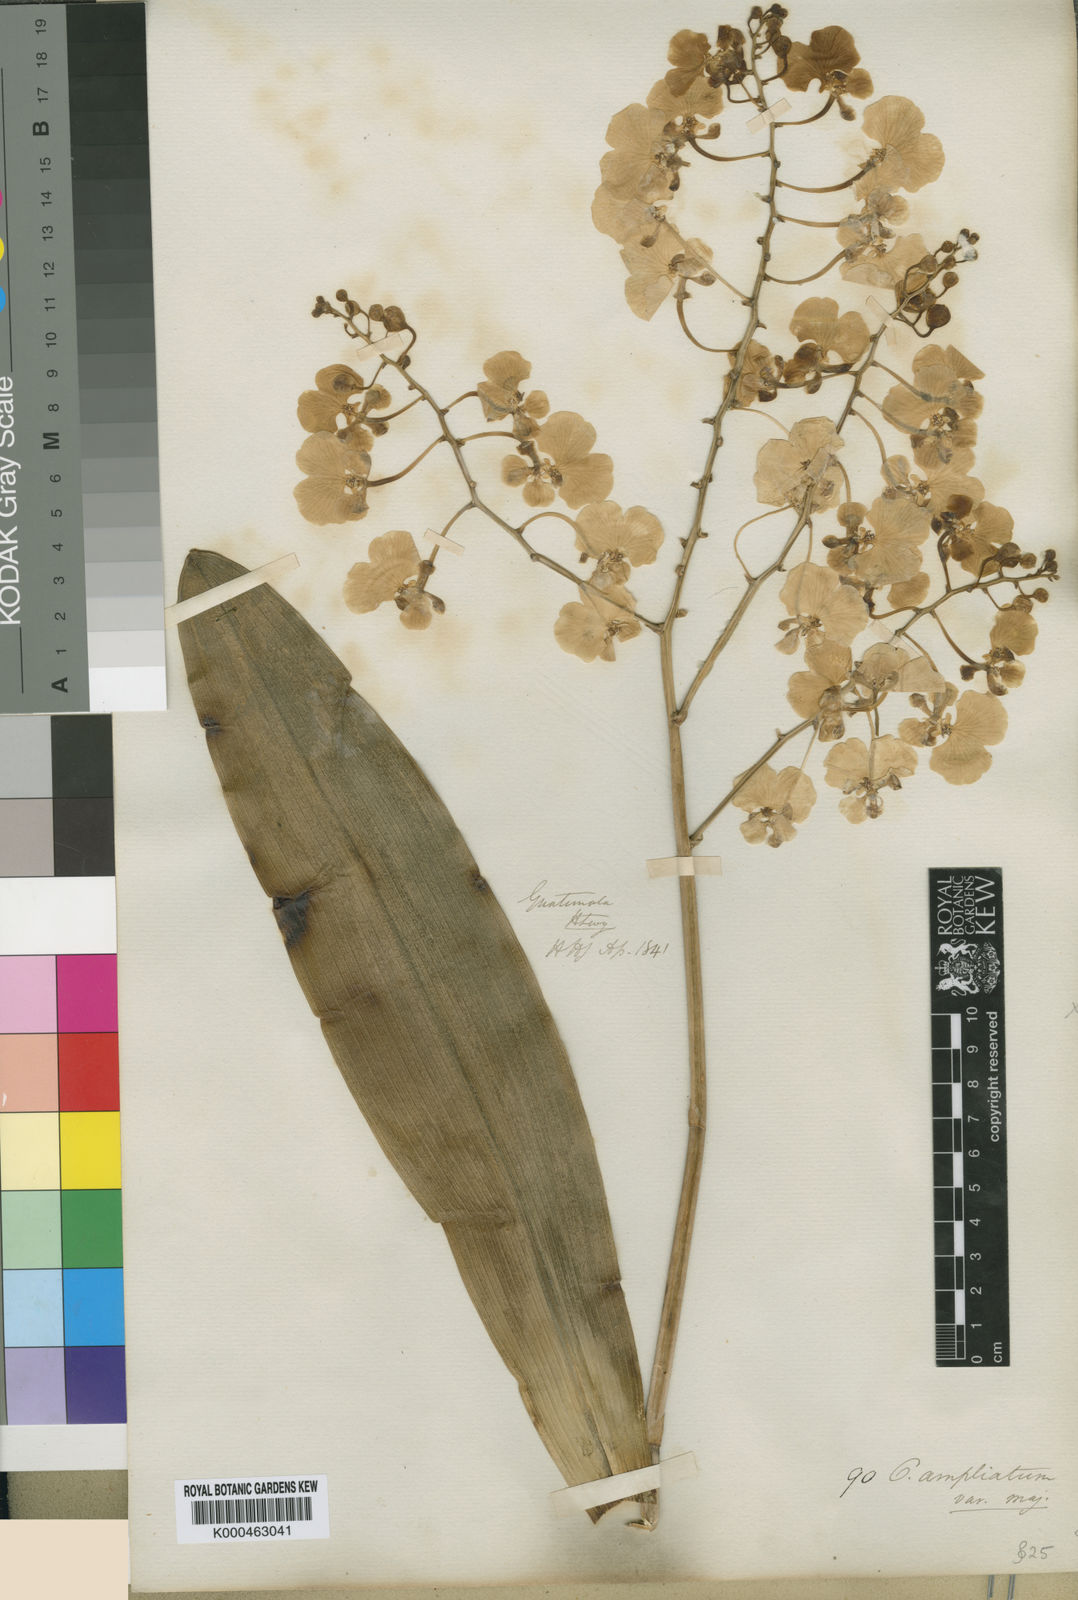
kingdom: Plantae
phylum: Tracheophyta
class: Liliopsida
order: Asparagales
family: Orchidaceae
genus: Rossioglossum
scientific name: Rossioglossum ampliatum
